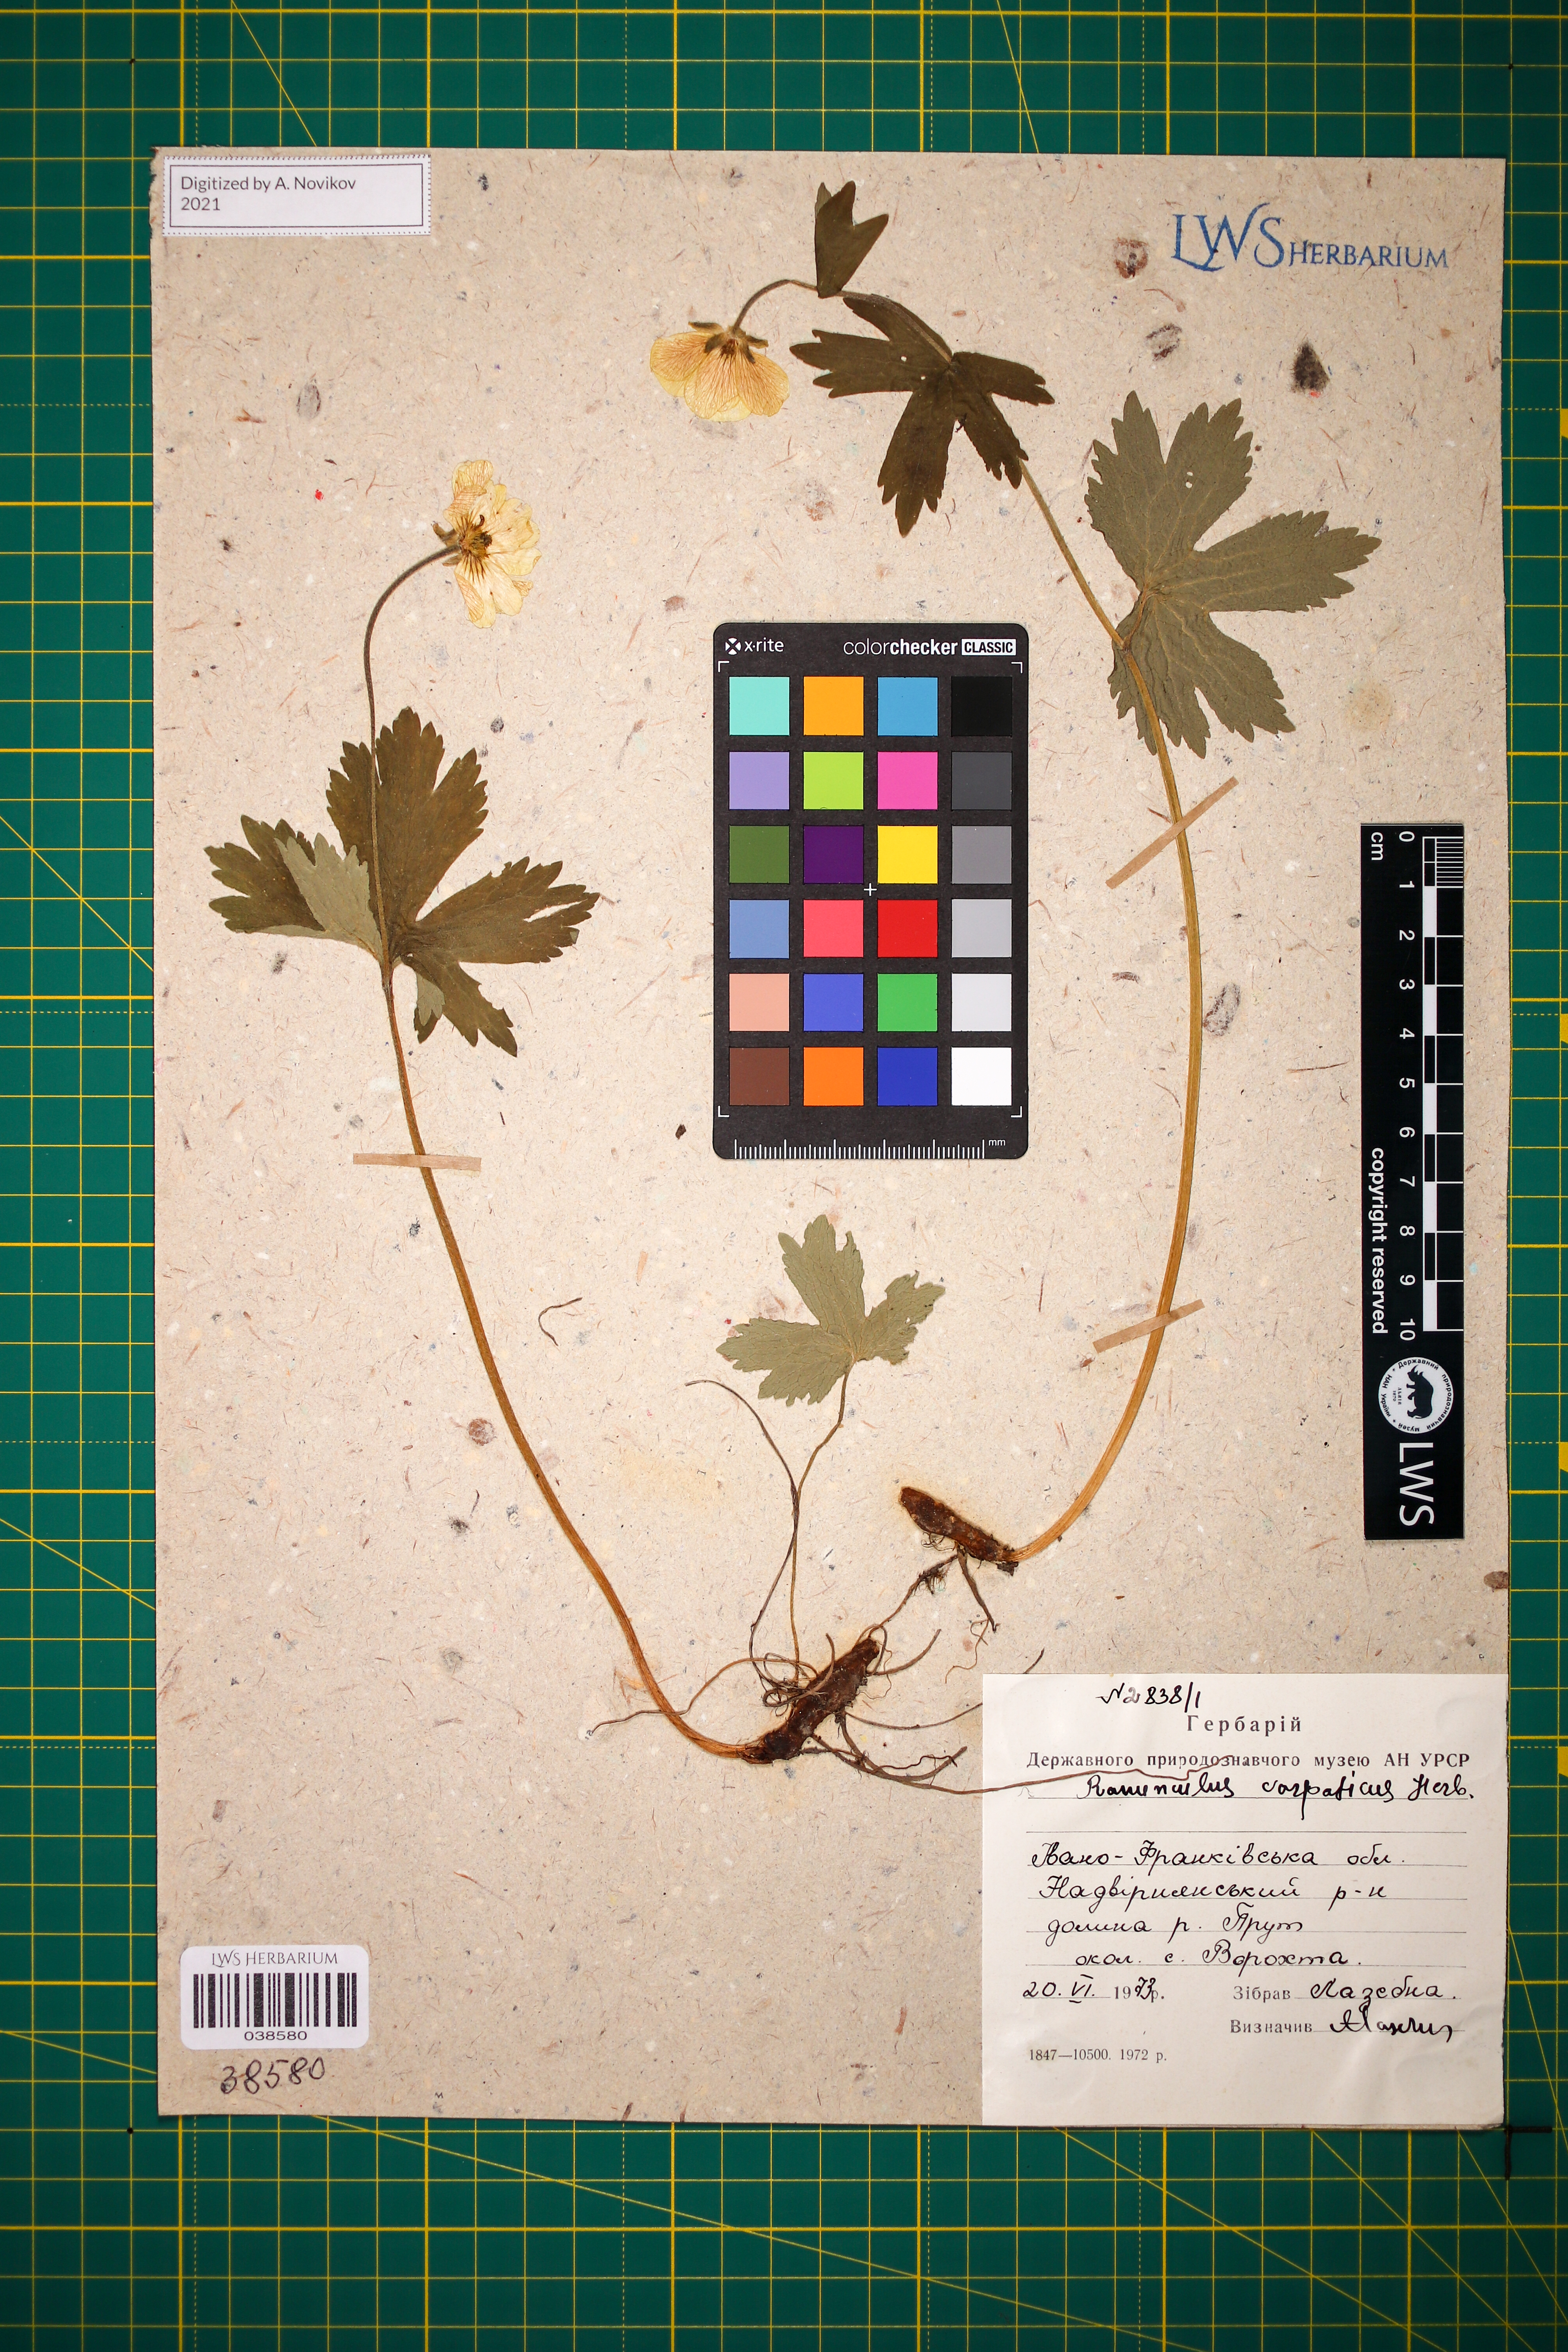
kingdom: Plantae
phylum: Tracheophyta
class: Magnoliopsida
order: Ranunculales
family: Ranunculaceae
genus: Ranunculus
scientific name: Ranunculus carpaticus
